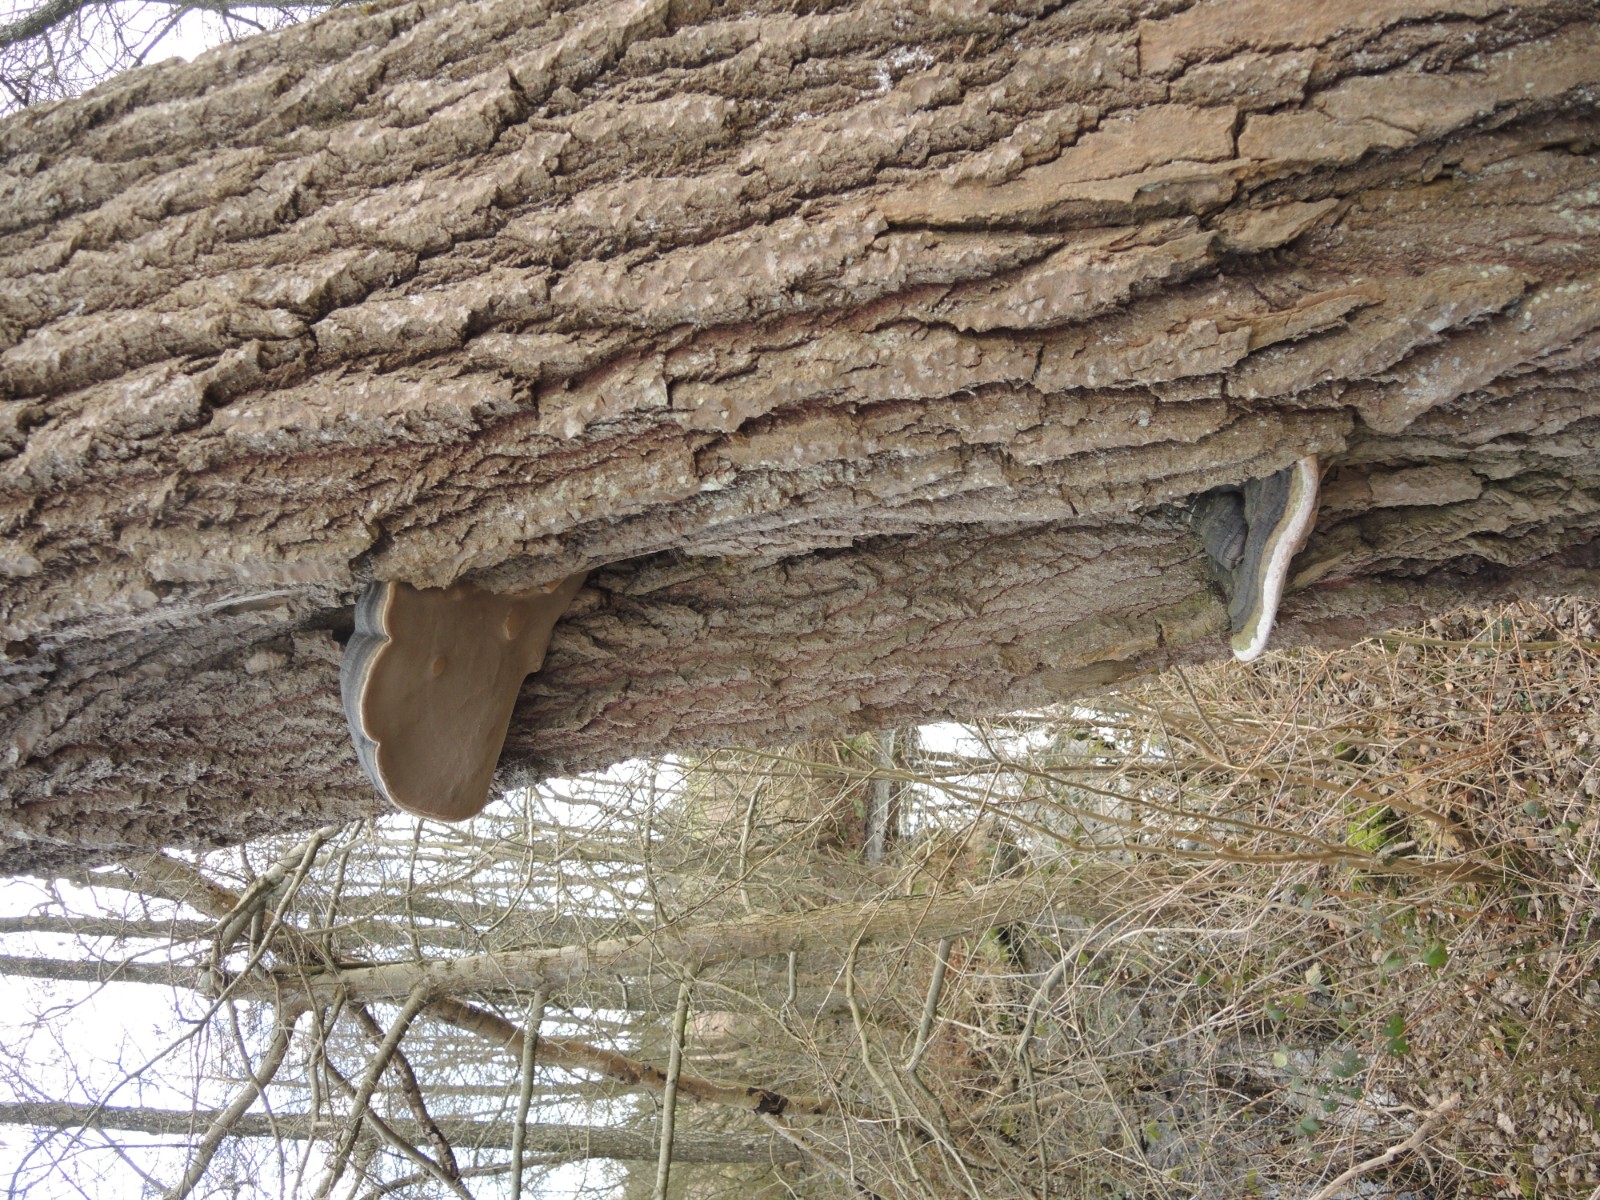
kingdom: Fungi
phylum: Basidiomycota
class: Agaricomycetes
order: Hymenochaetales
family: Hymenochaetaceae
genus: Phellinus
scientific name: Phellinus populicola
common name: poppel-ildporesvamp
